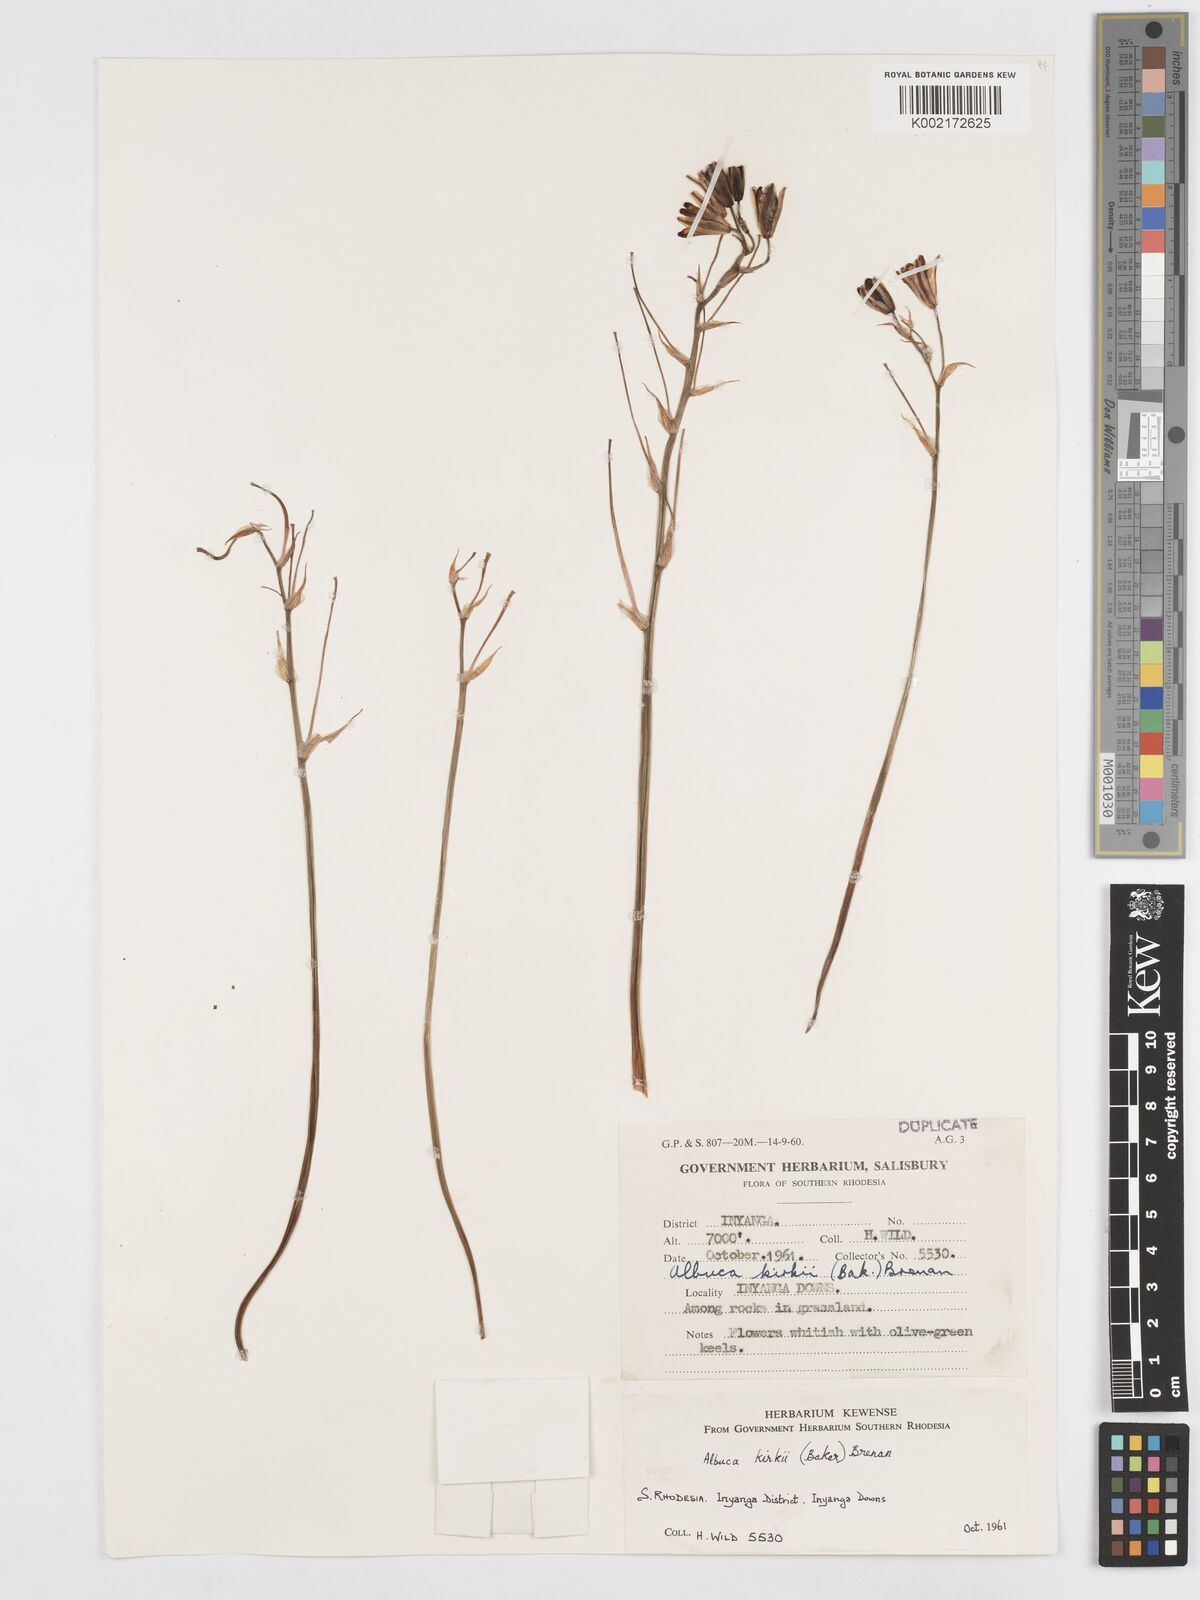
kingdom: Plantae
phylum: Tracheophyta
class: Liliopsida
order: Asparagales
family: Asparagaceae
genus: Albuca
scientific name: Albuca kirkii
